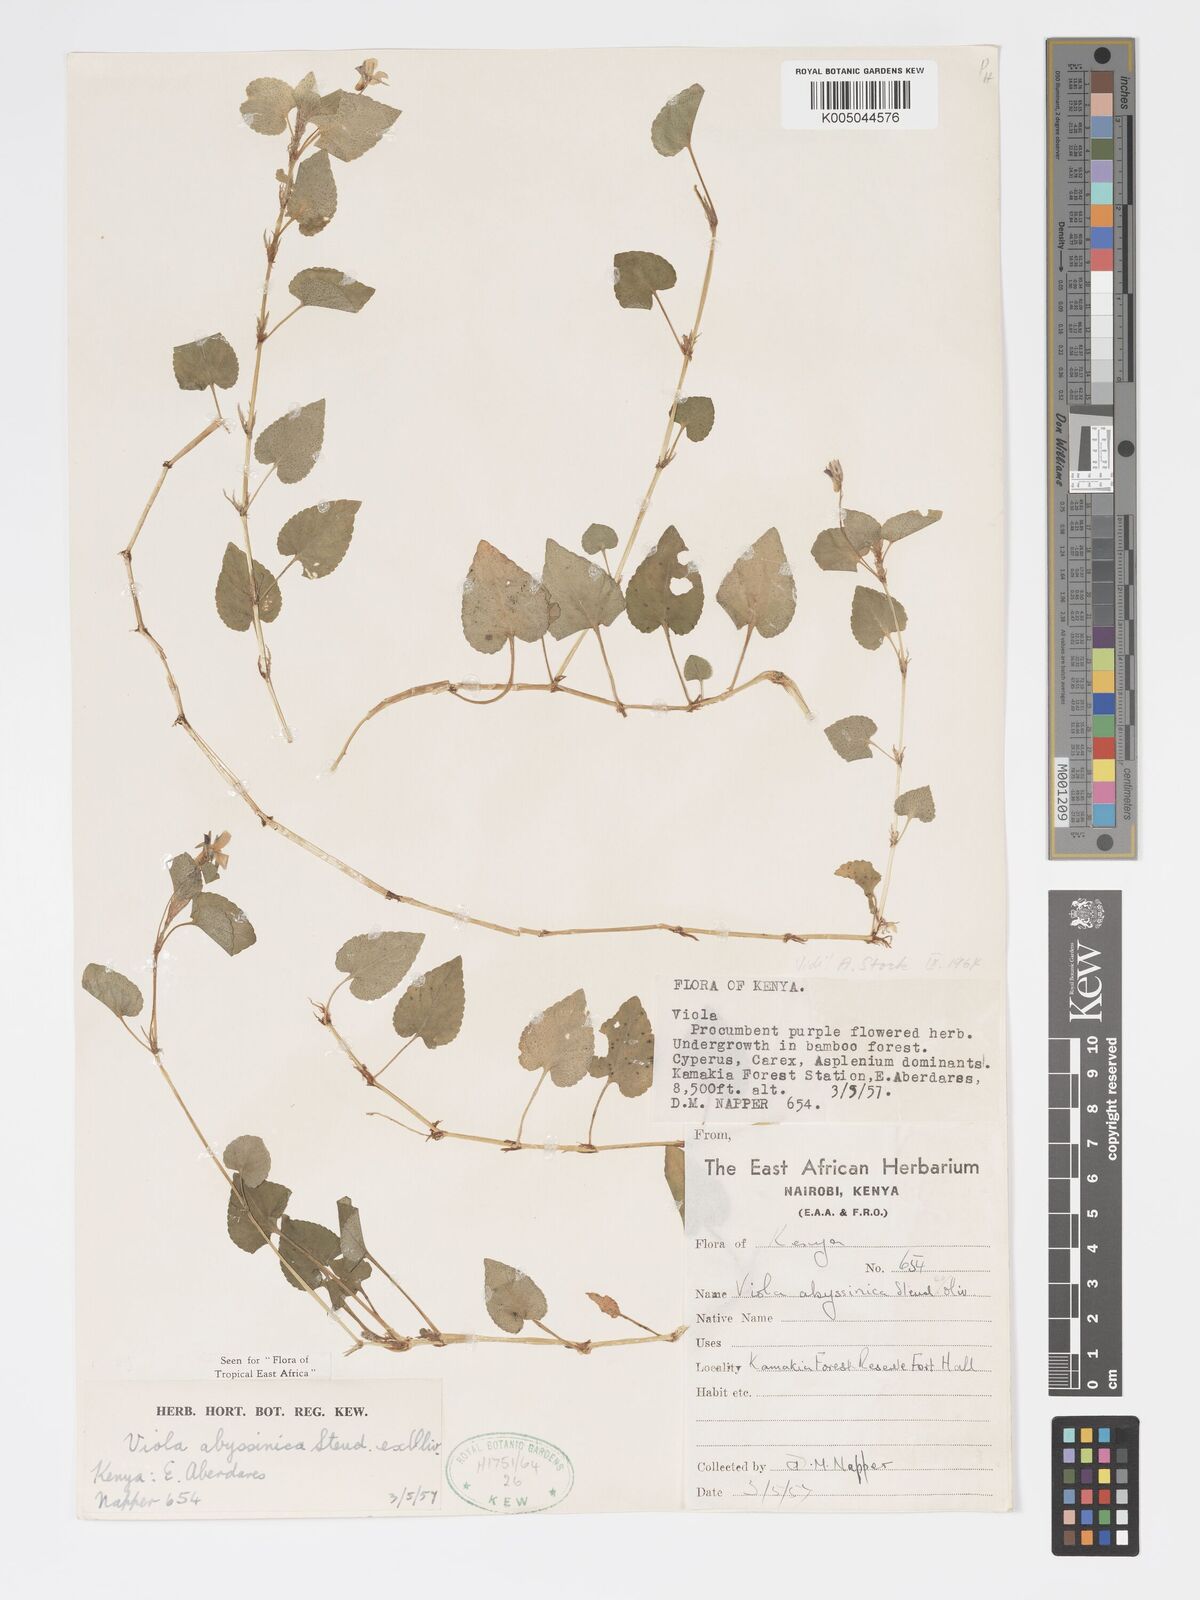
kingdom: Plantae
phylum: Tracheophyta
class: Magnoliopsida
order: Malpighiales
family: Violaceae
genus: Viola
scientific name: Viola abyssinica
